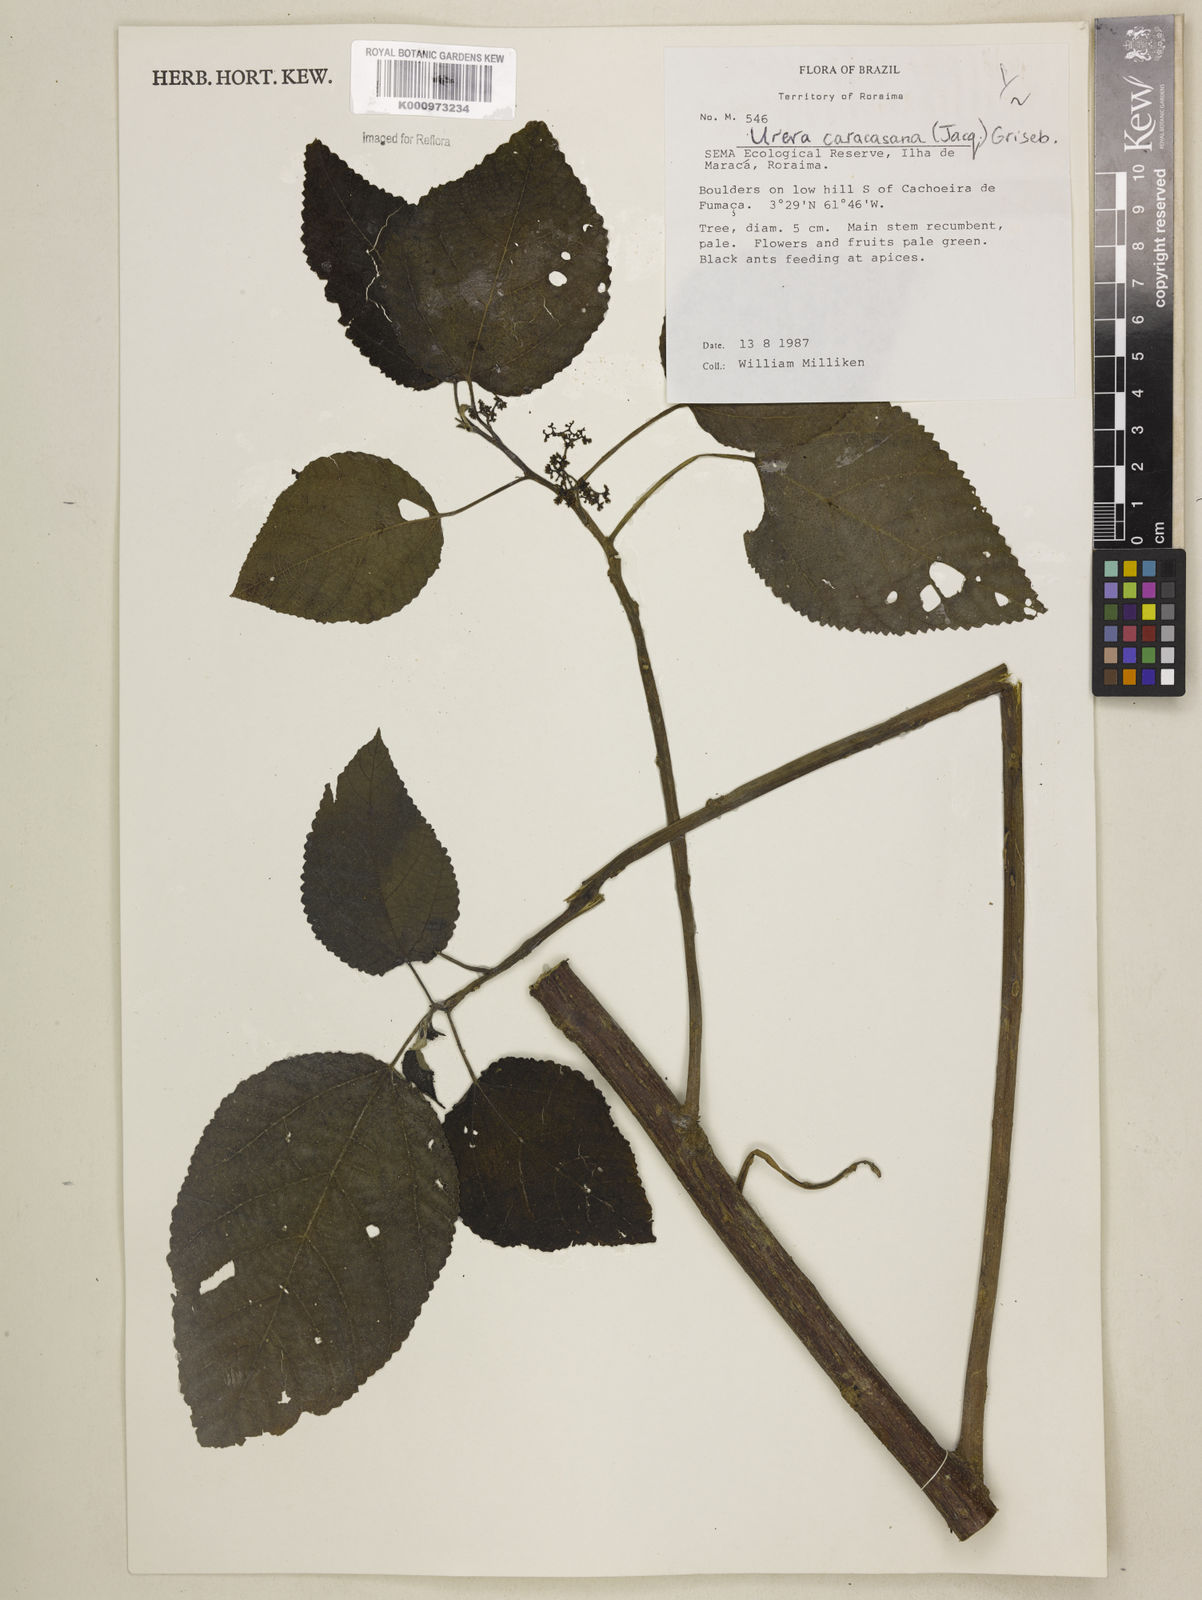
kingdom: Plantae
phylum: Tracheophyta
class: Magnoliopsida
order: Rosales
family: Urticaceae
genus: Urera
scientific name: Urera caracasana
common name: Flameberry
